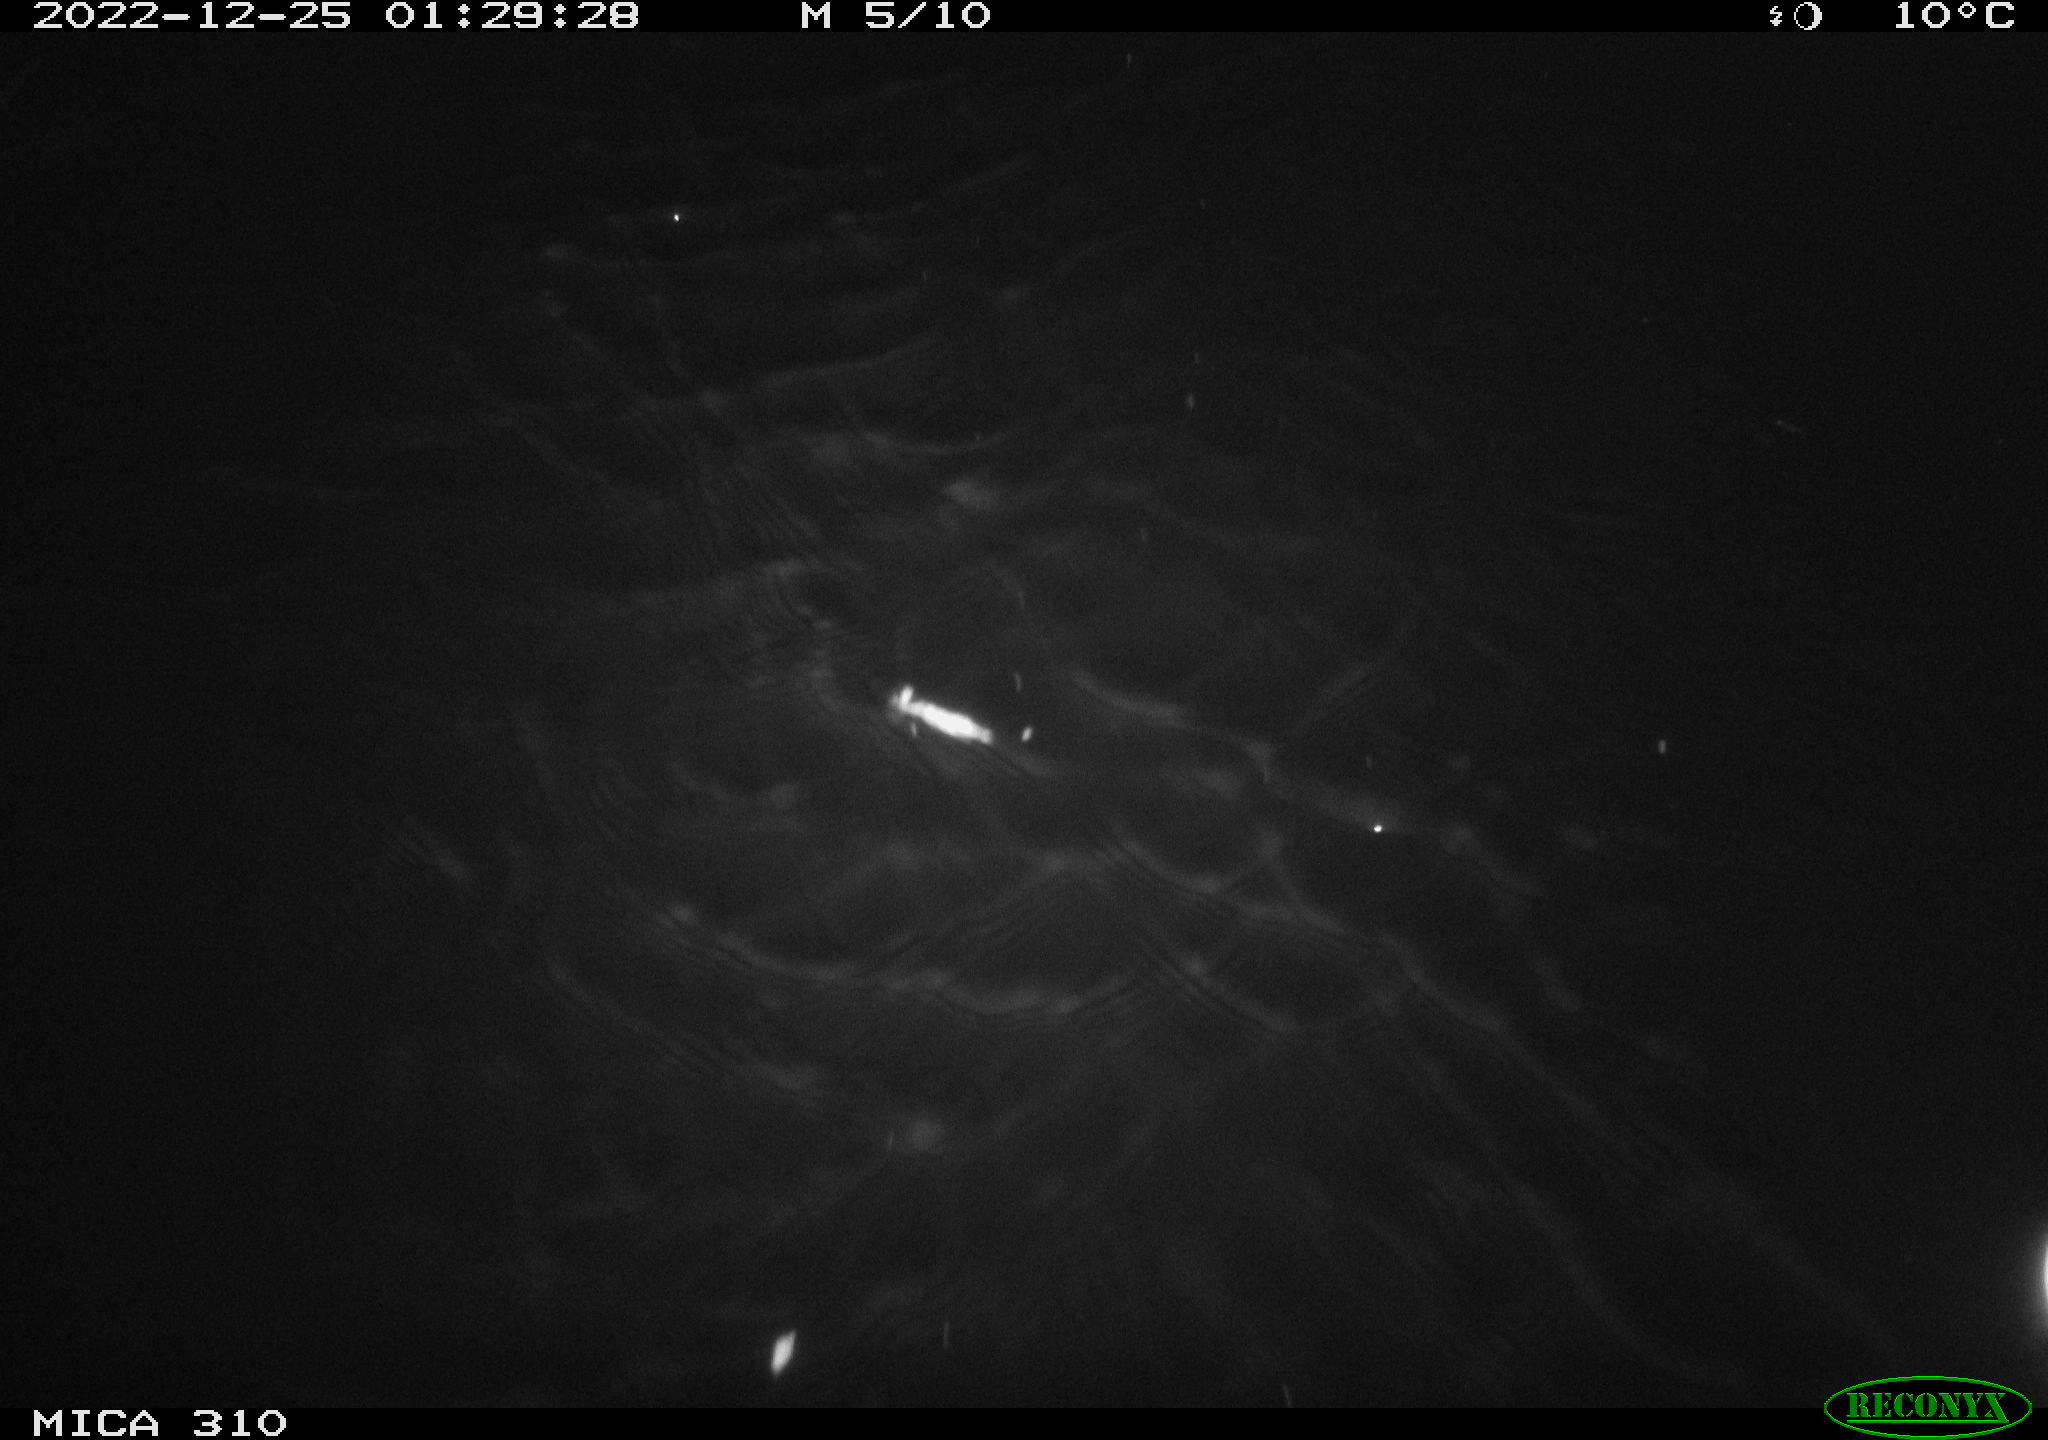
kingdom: Animalia
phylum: Chordata
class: Aves
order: Anseriformes
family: Anatidae
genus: Anas
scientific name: Anas
